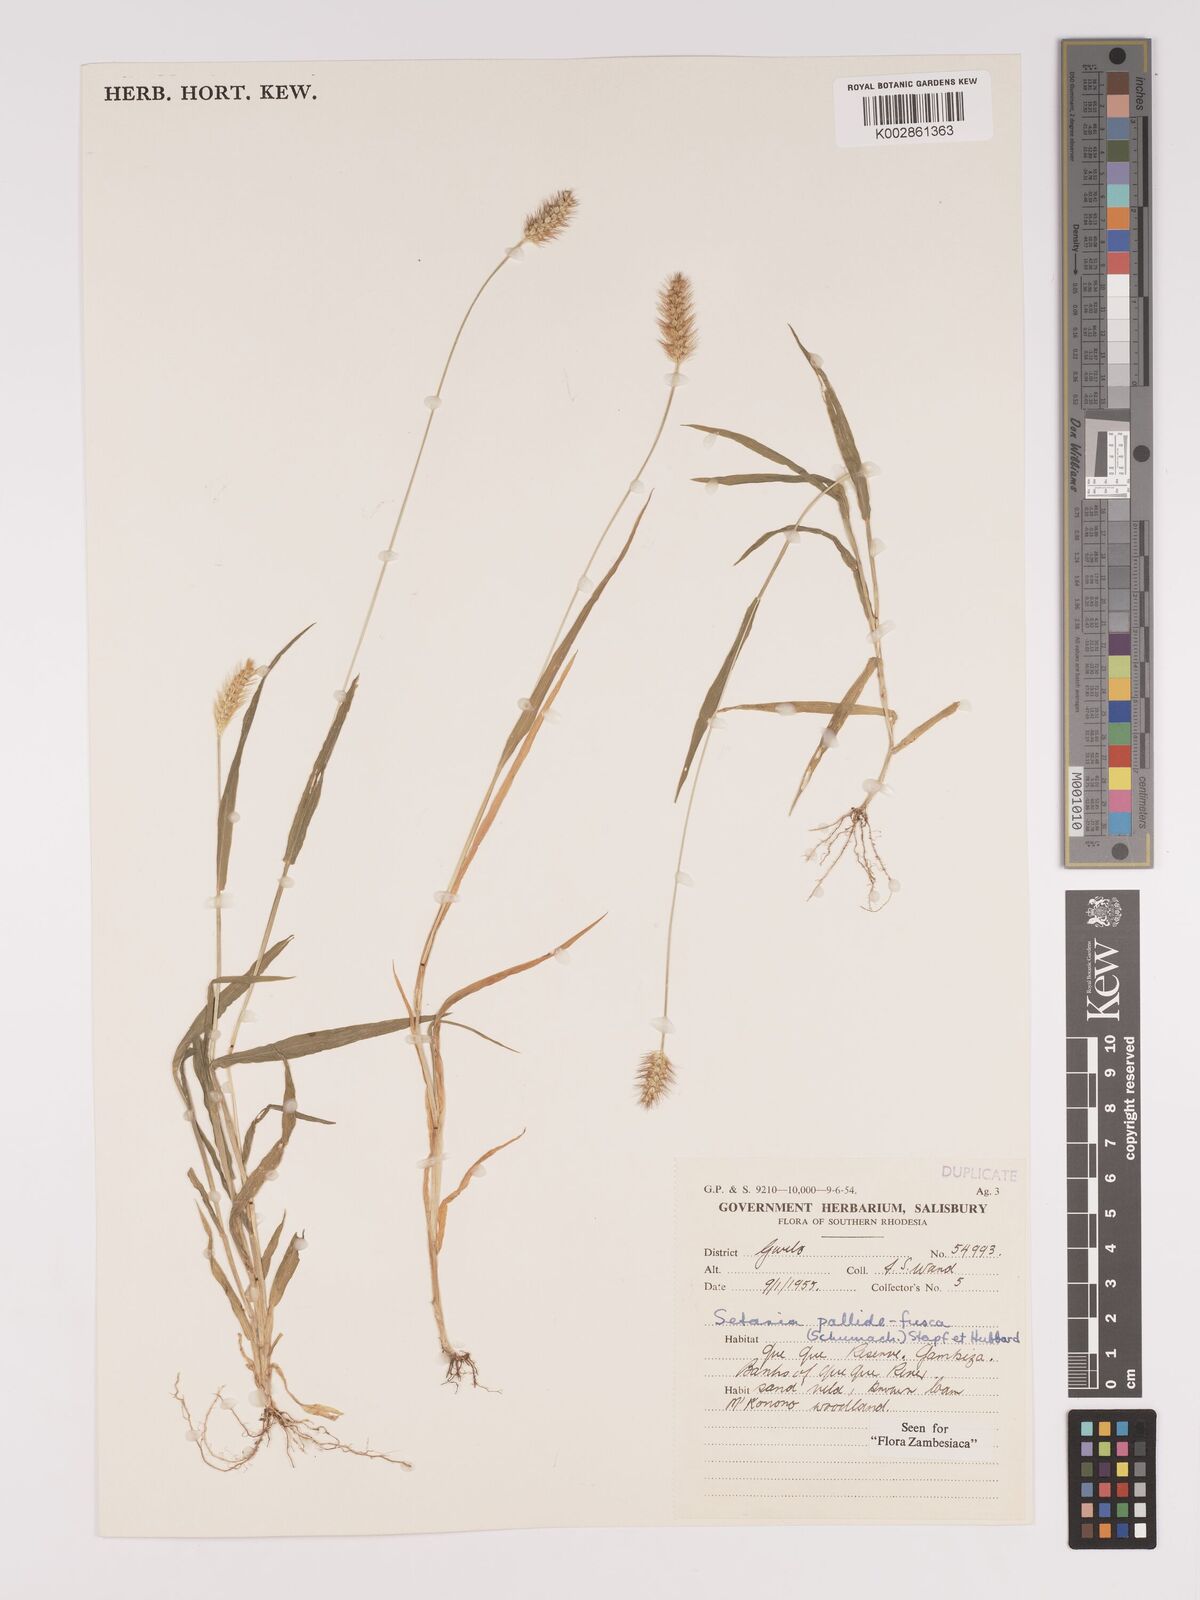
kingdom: Plantae
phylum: Tracheophyta
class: Liliopsida
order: Poales
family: Poaceae
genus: Setaria
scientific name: Setaria pumila
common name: Yellow bristle-grass
